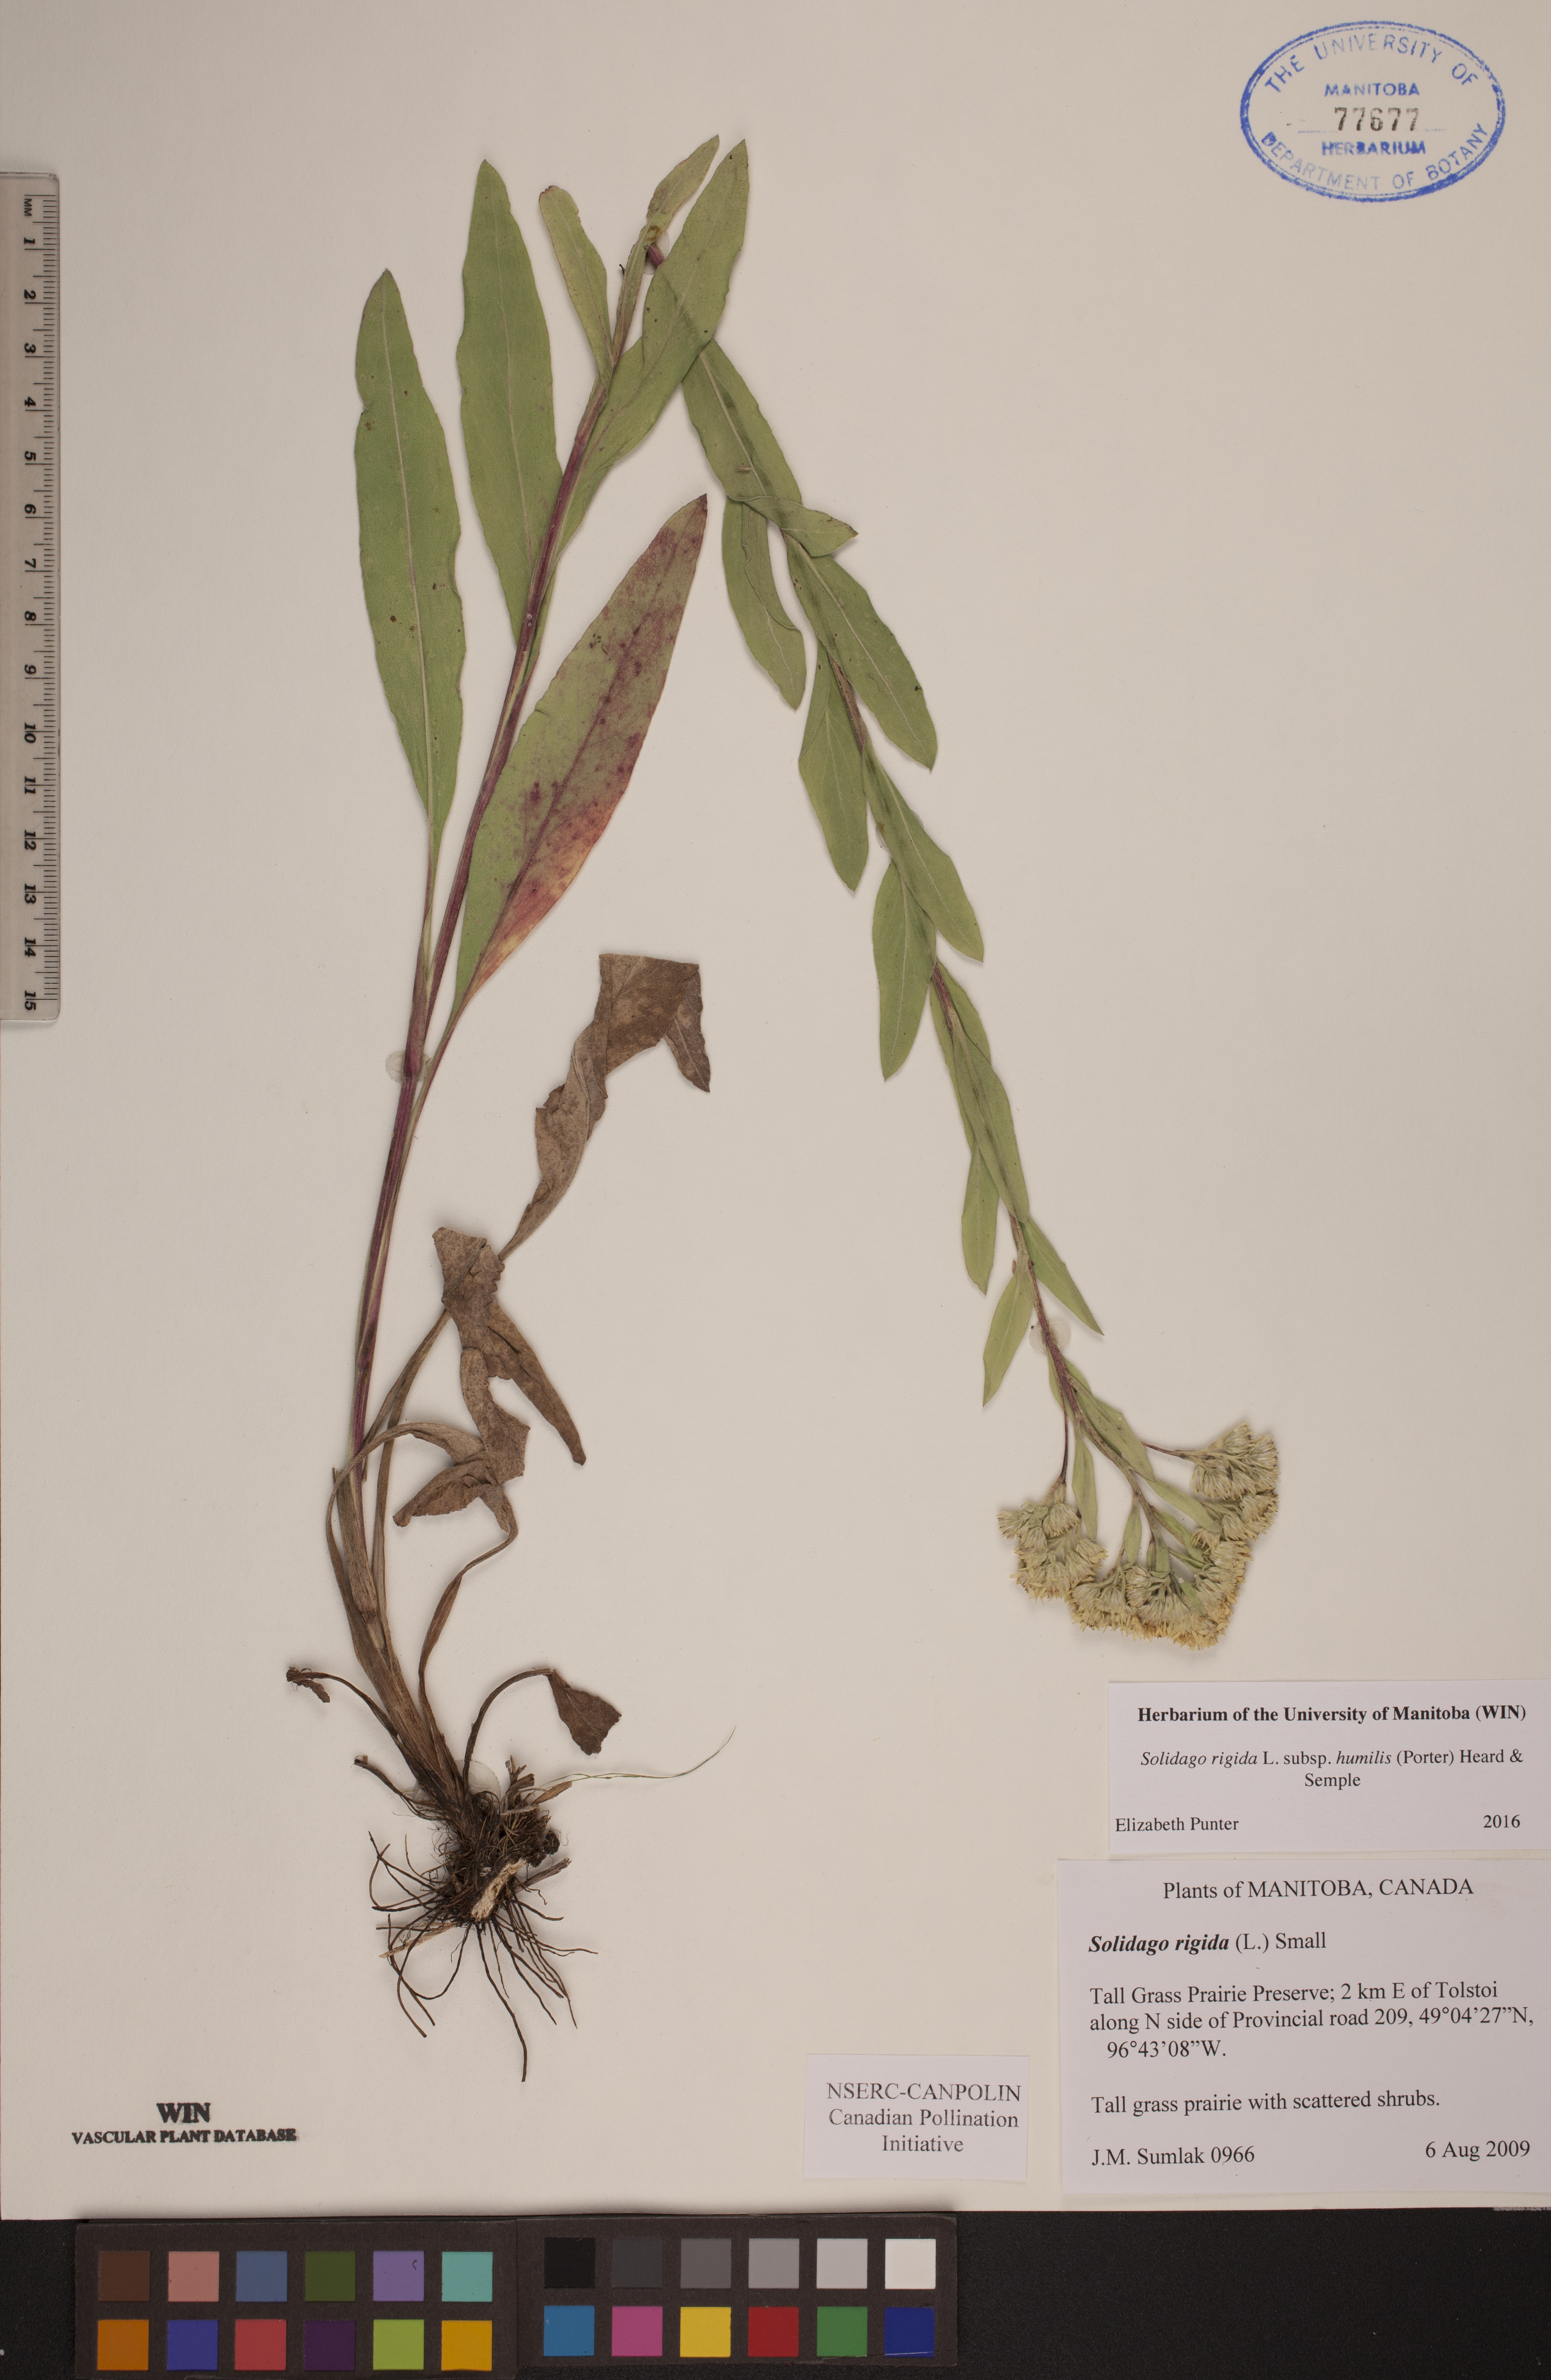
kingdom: Plantae
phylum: Tracheophyta
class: Magnoliopsida
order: Asterales
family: Asteraceae
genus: Solidago
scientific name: Solidago rigida
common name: Rigid goldenrod
